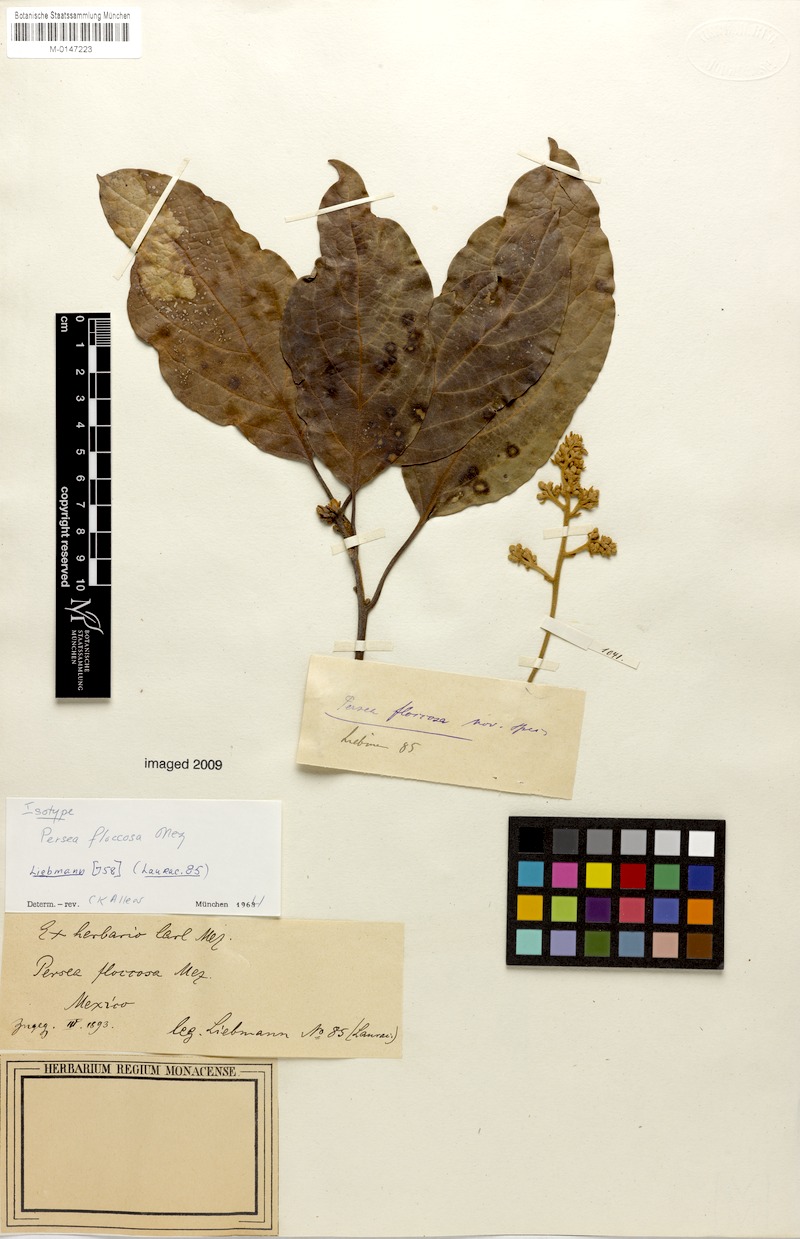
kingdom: Plantae
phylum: Tracheophyta
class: Magnoliopsida
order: Laurales
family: Lauraceae
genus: Persea
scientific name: Persea americana
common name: Avocado
